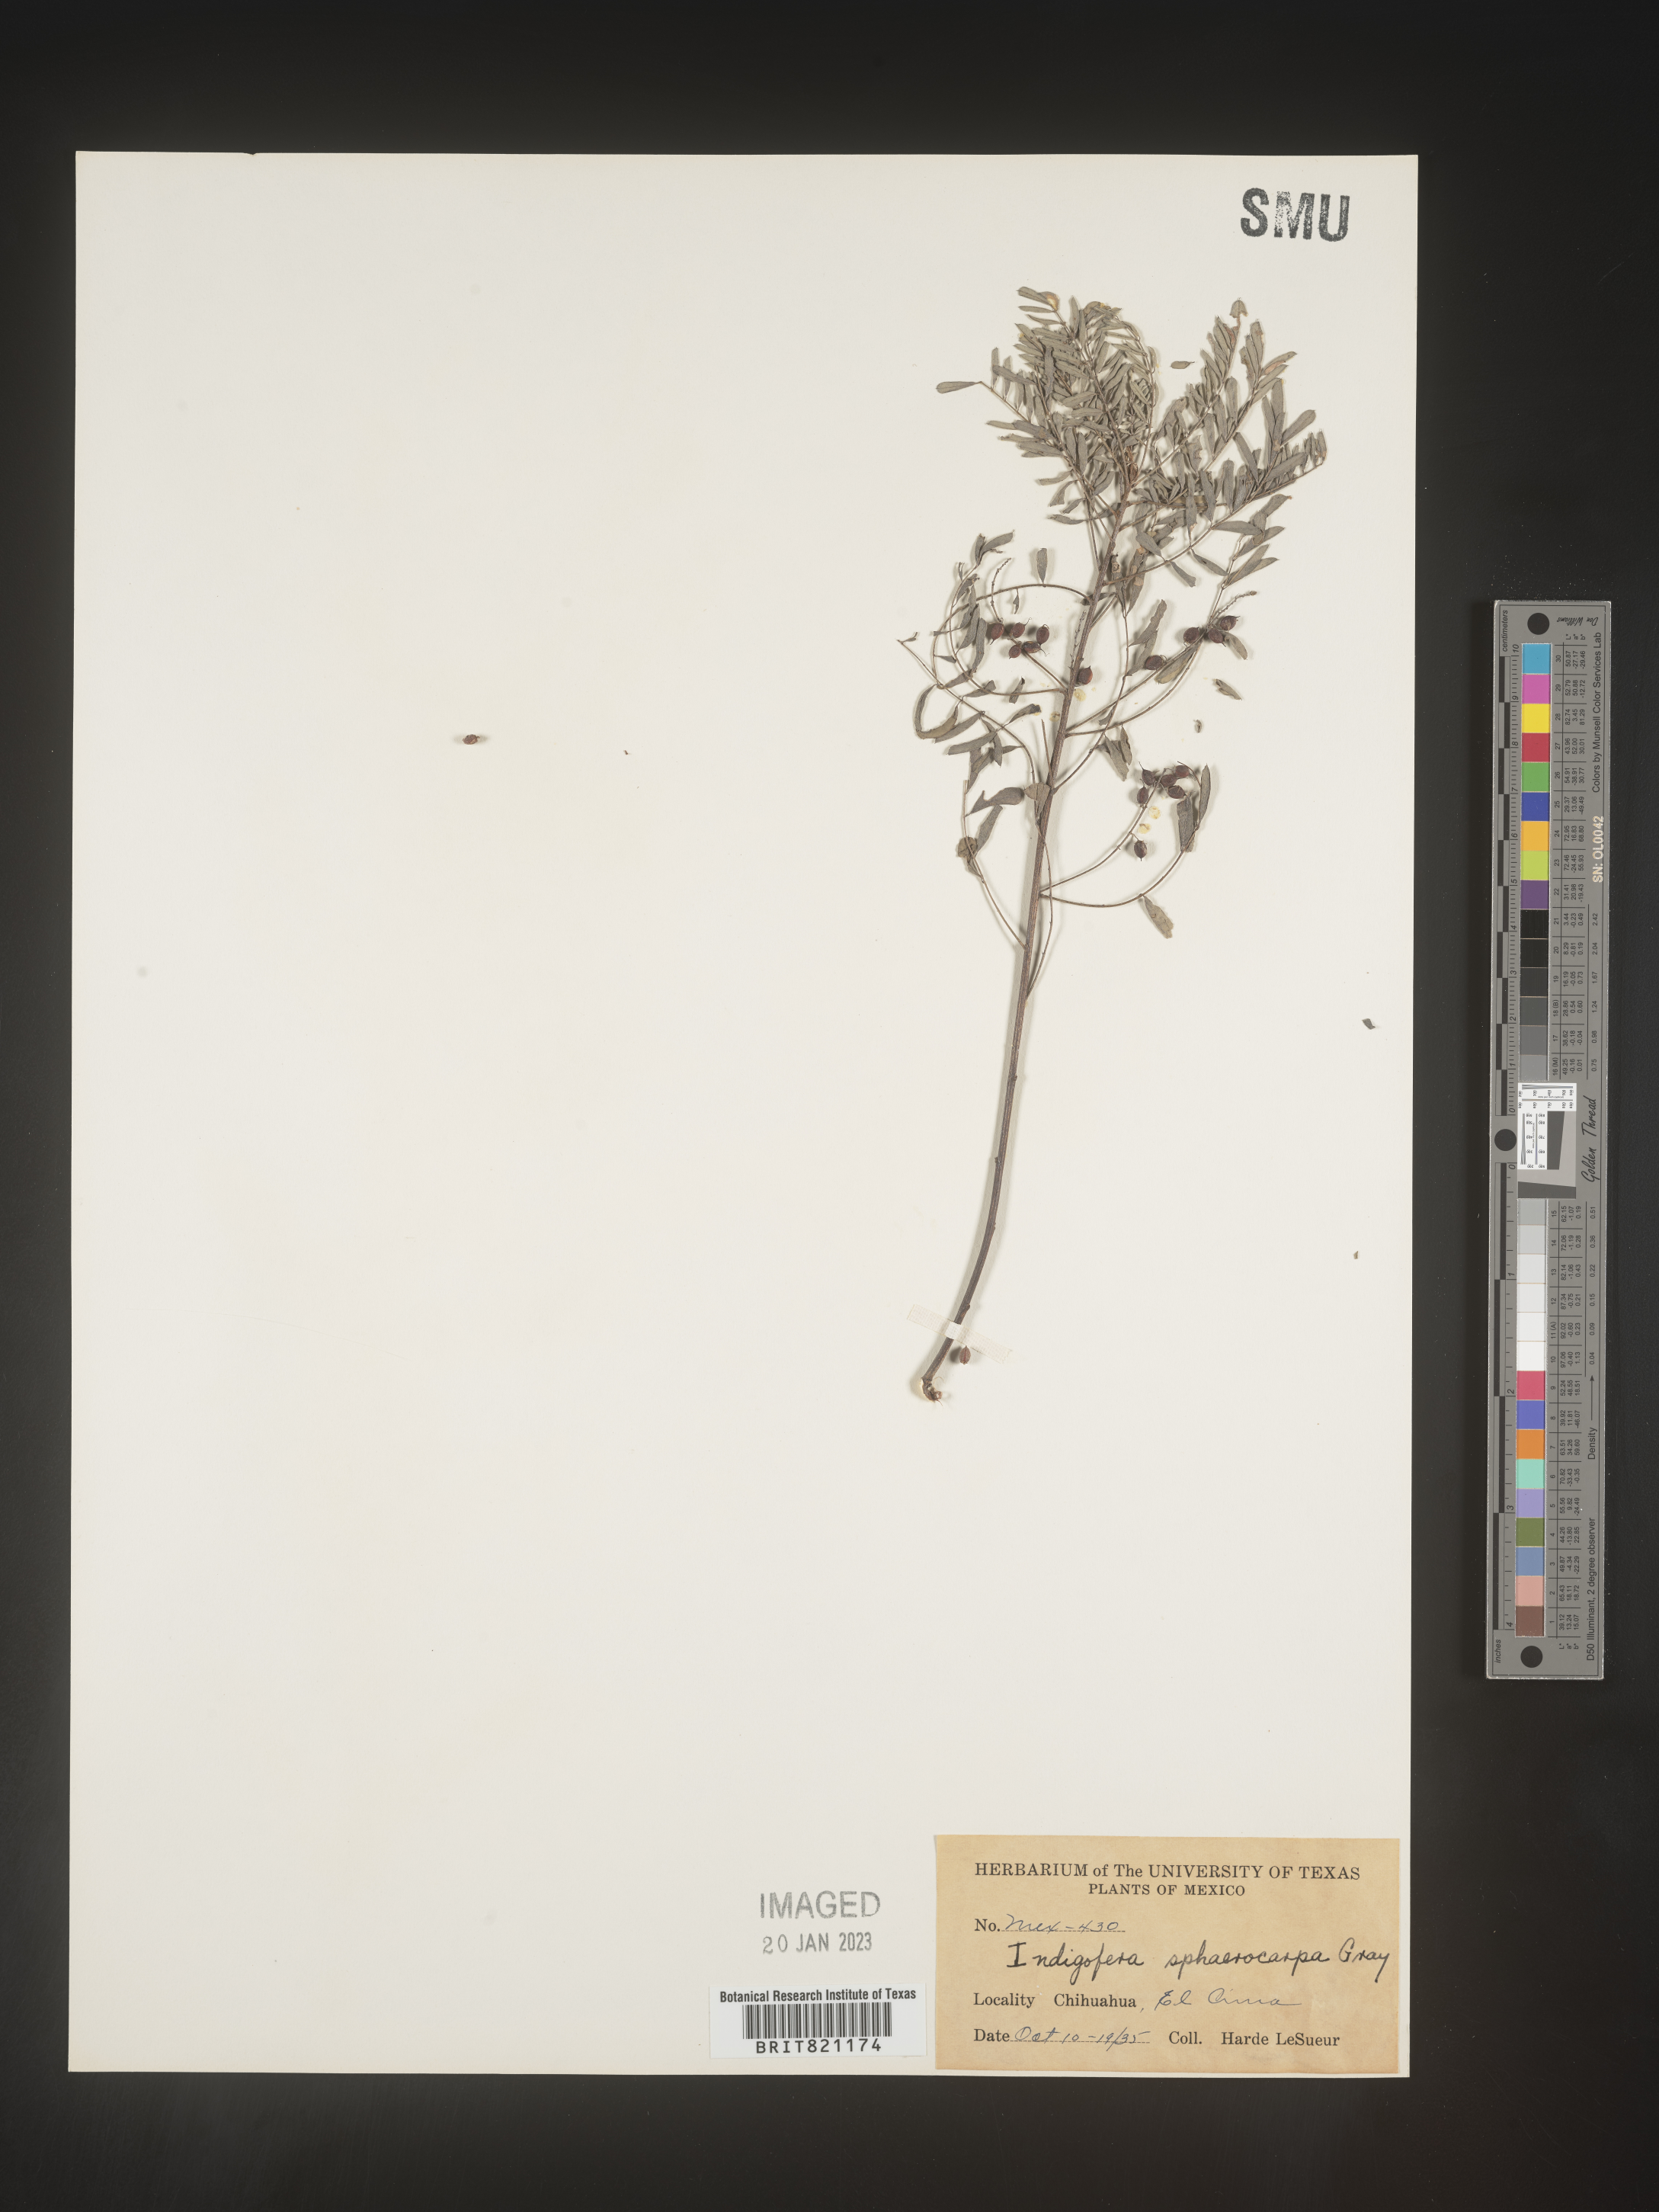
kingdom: Plantae
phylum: Tracheophyta
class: Magnoliopsida
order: Fabales
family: Fabaceae
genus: Indigofera
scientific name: Indigofera
